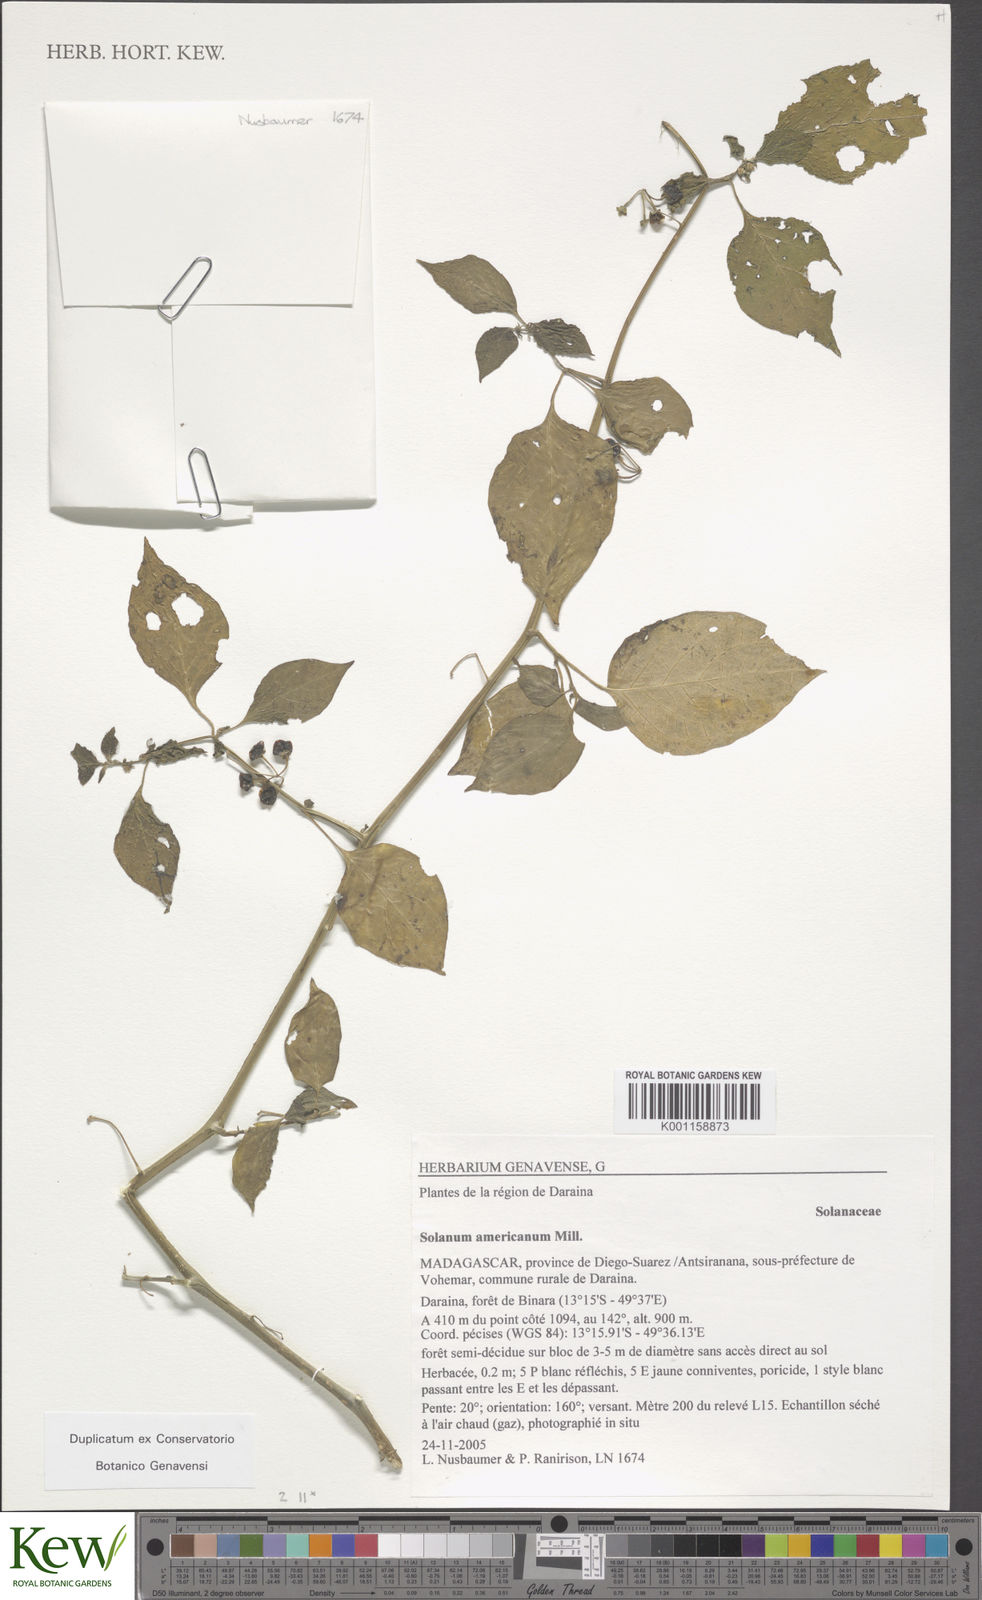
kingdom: Plantae
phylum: Tracheophyta
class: Magnoliopsida
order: Solanales
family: Solanaceae
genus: Solanum
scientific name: Solanum americanum
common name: American black nightshade
